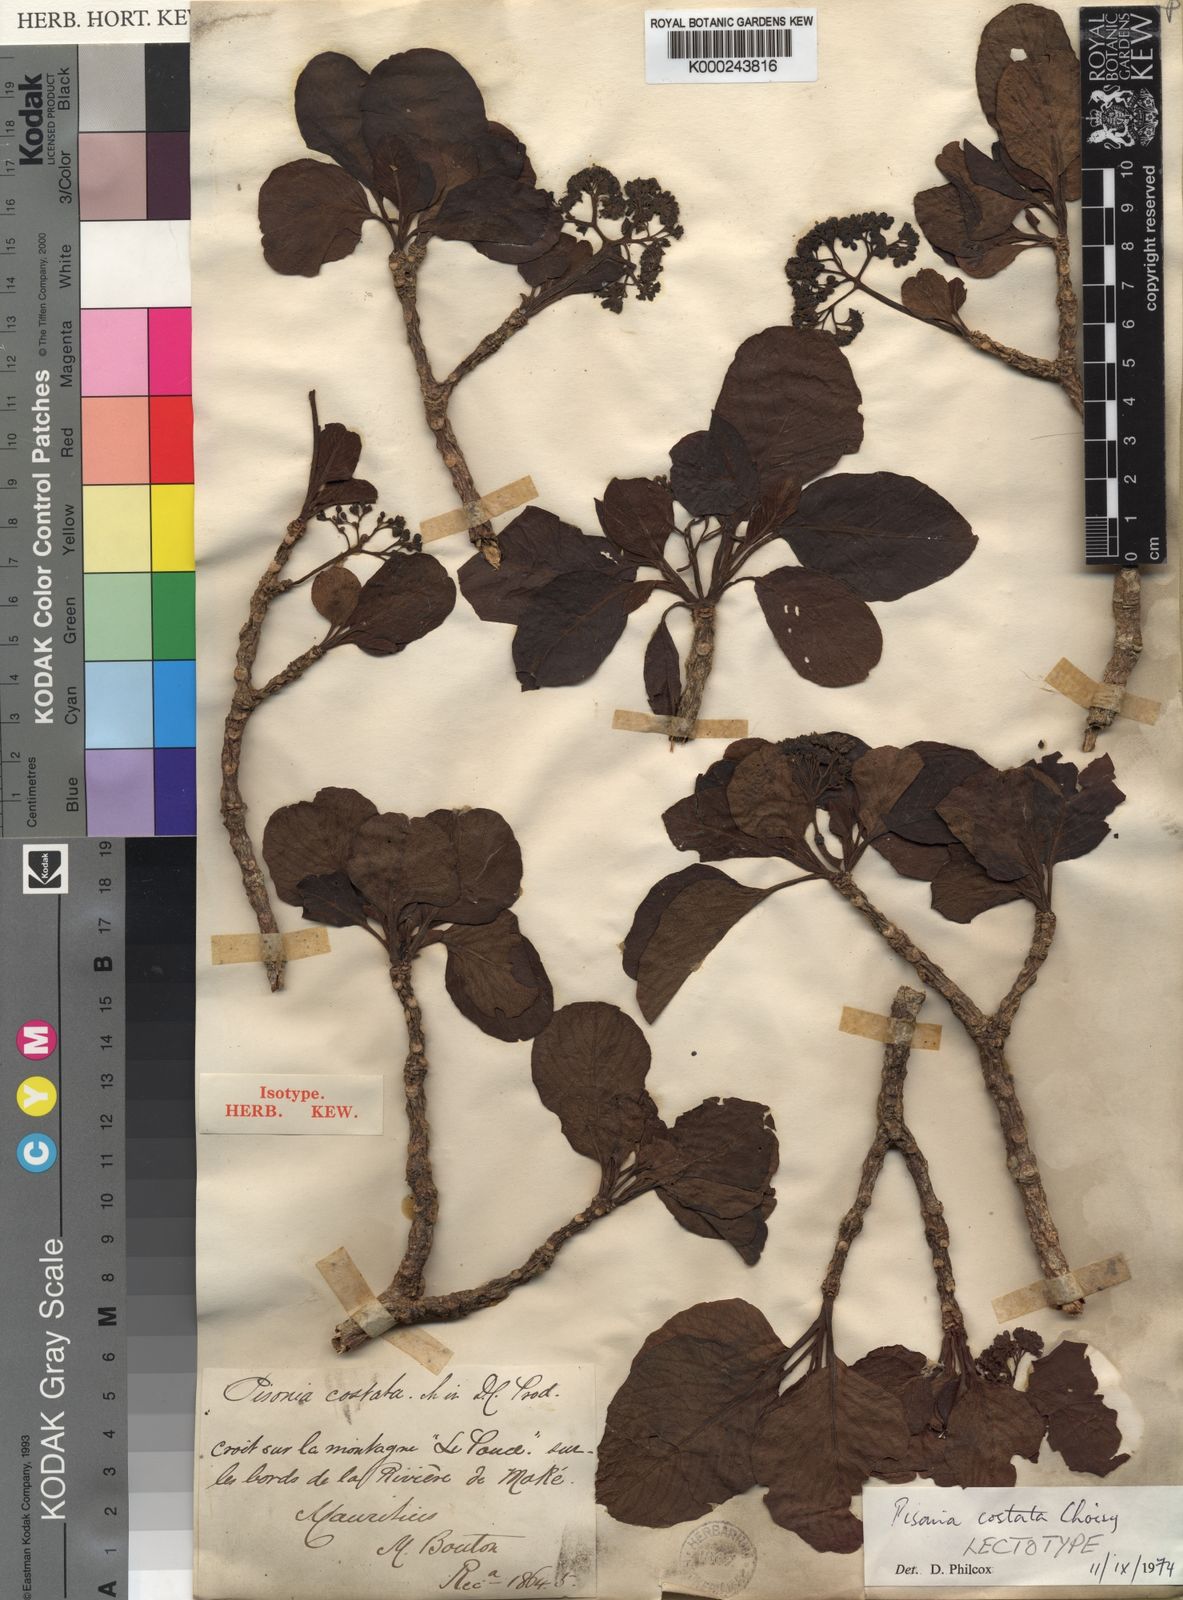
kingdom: Plantae
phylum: Tracheophyta
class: Magnoliopsida
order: Caryophyllales
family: Nyctaginaceae
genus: Ceodes
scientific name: Ceodes costata
